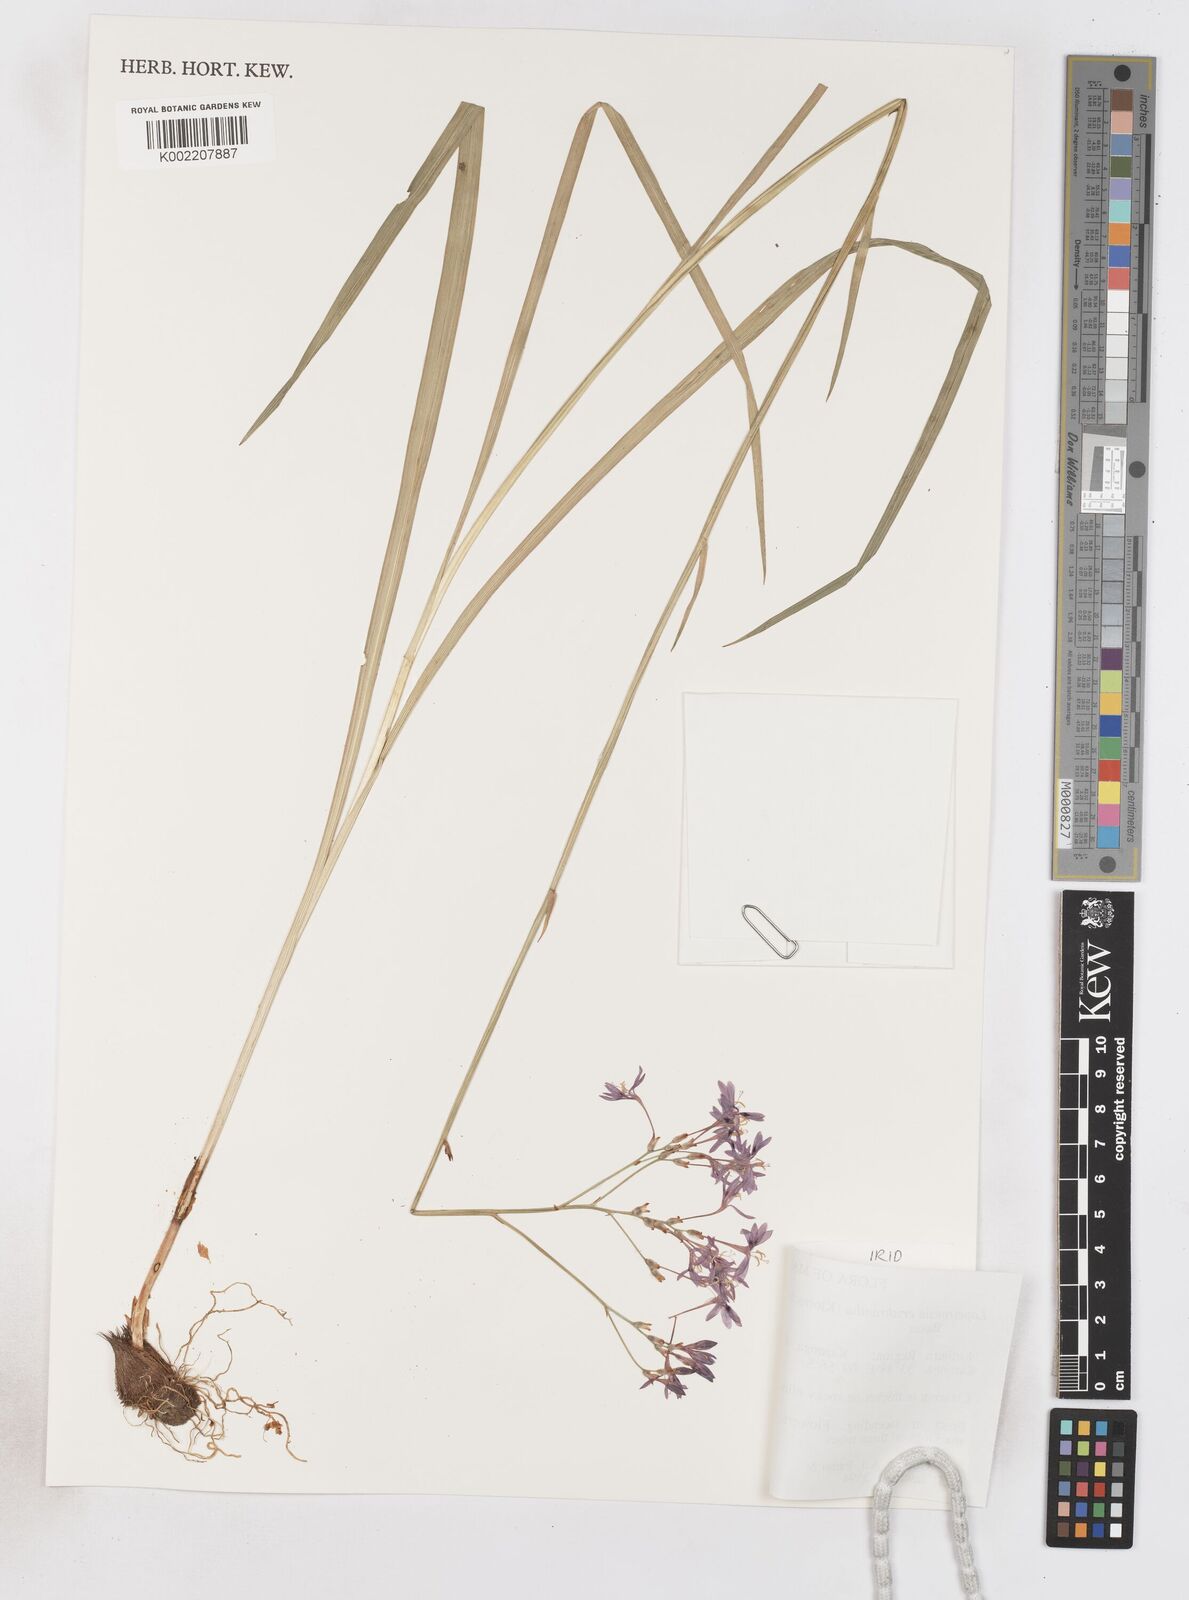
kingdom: Plantae
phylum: Tracheophyta
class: Liliopsida
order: Asparagales
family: Iridaceae
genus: Afrosolen
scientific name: Afrosolen erythranthus
